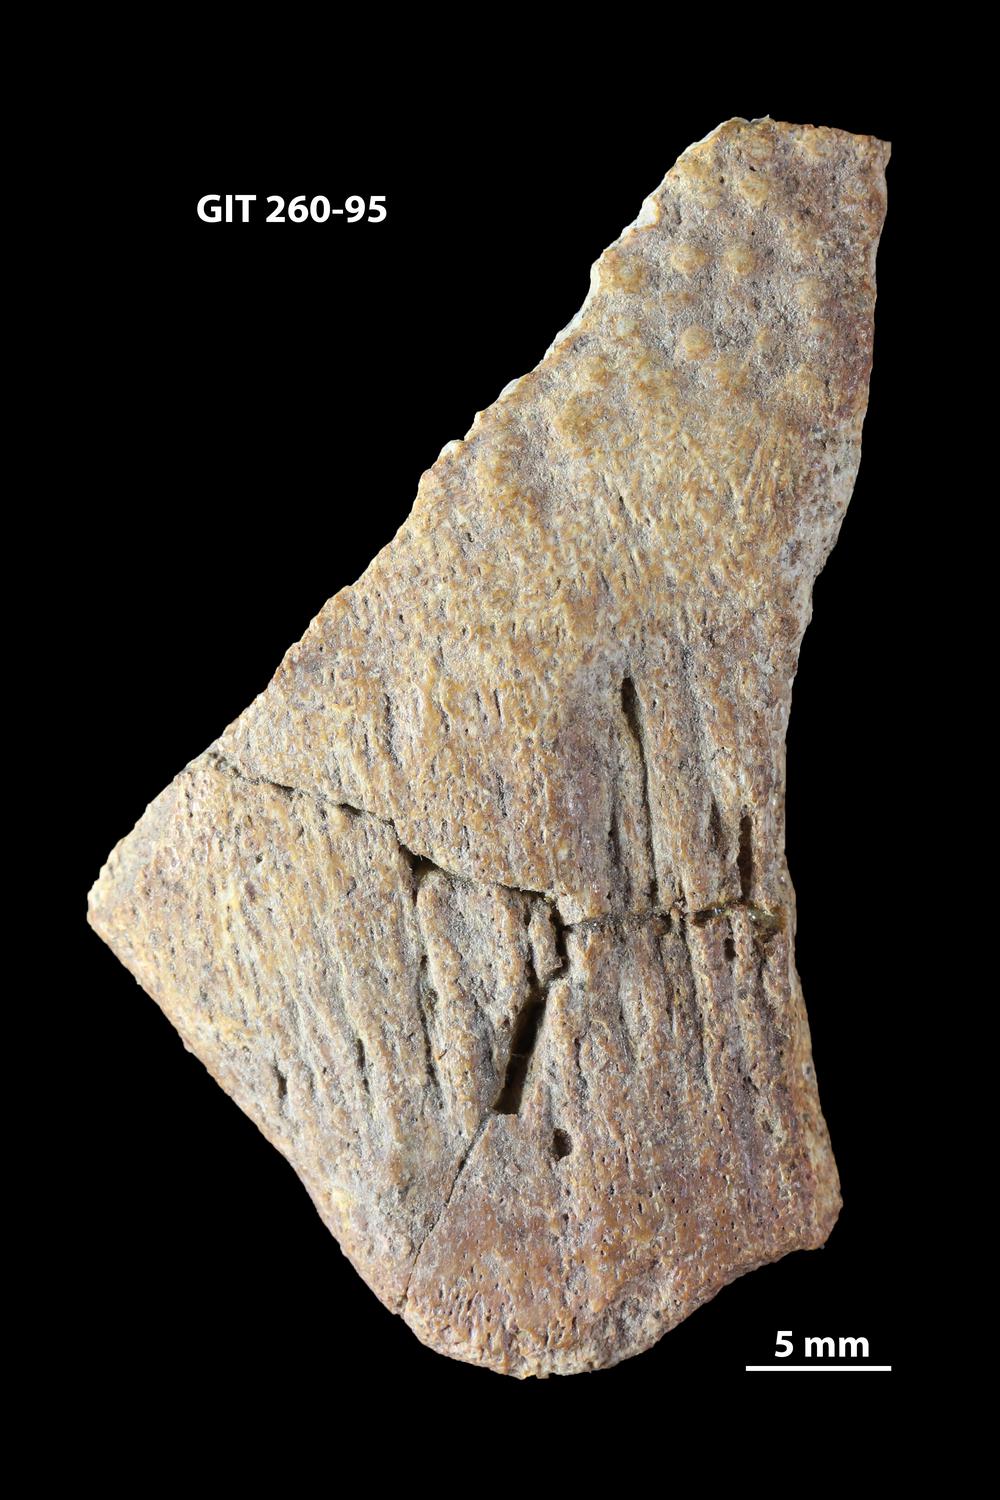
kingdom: Animalia
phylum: Chordata
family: Homostiidae
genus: Homostius
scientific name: Homostius
